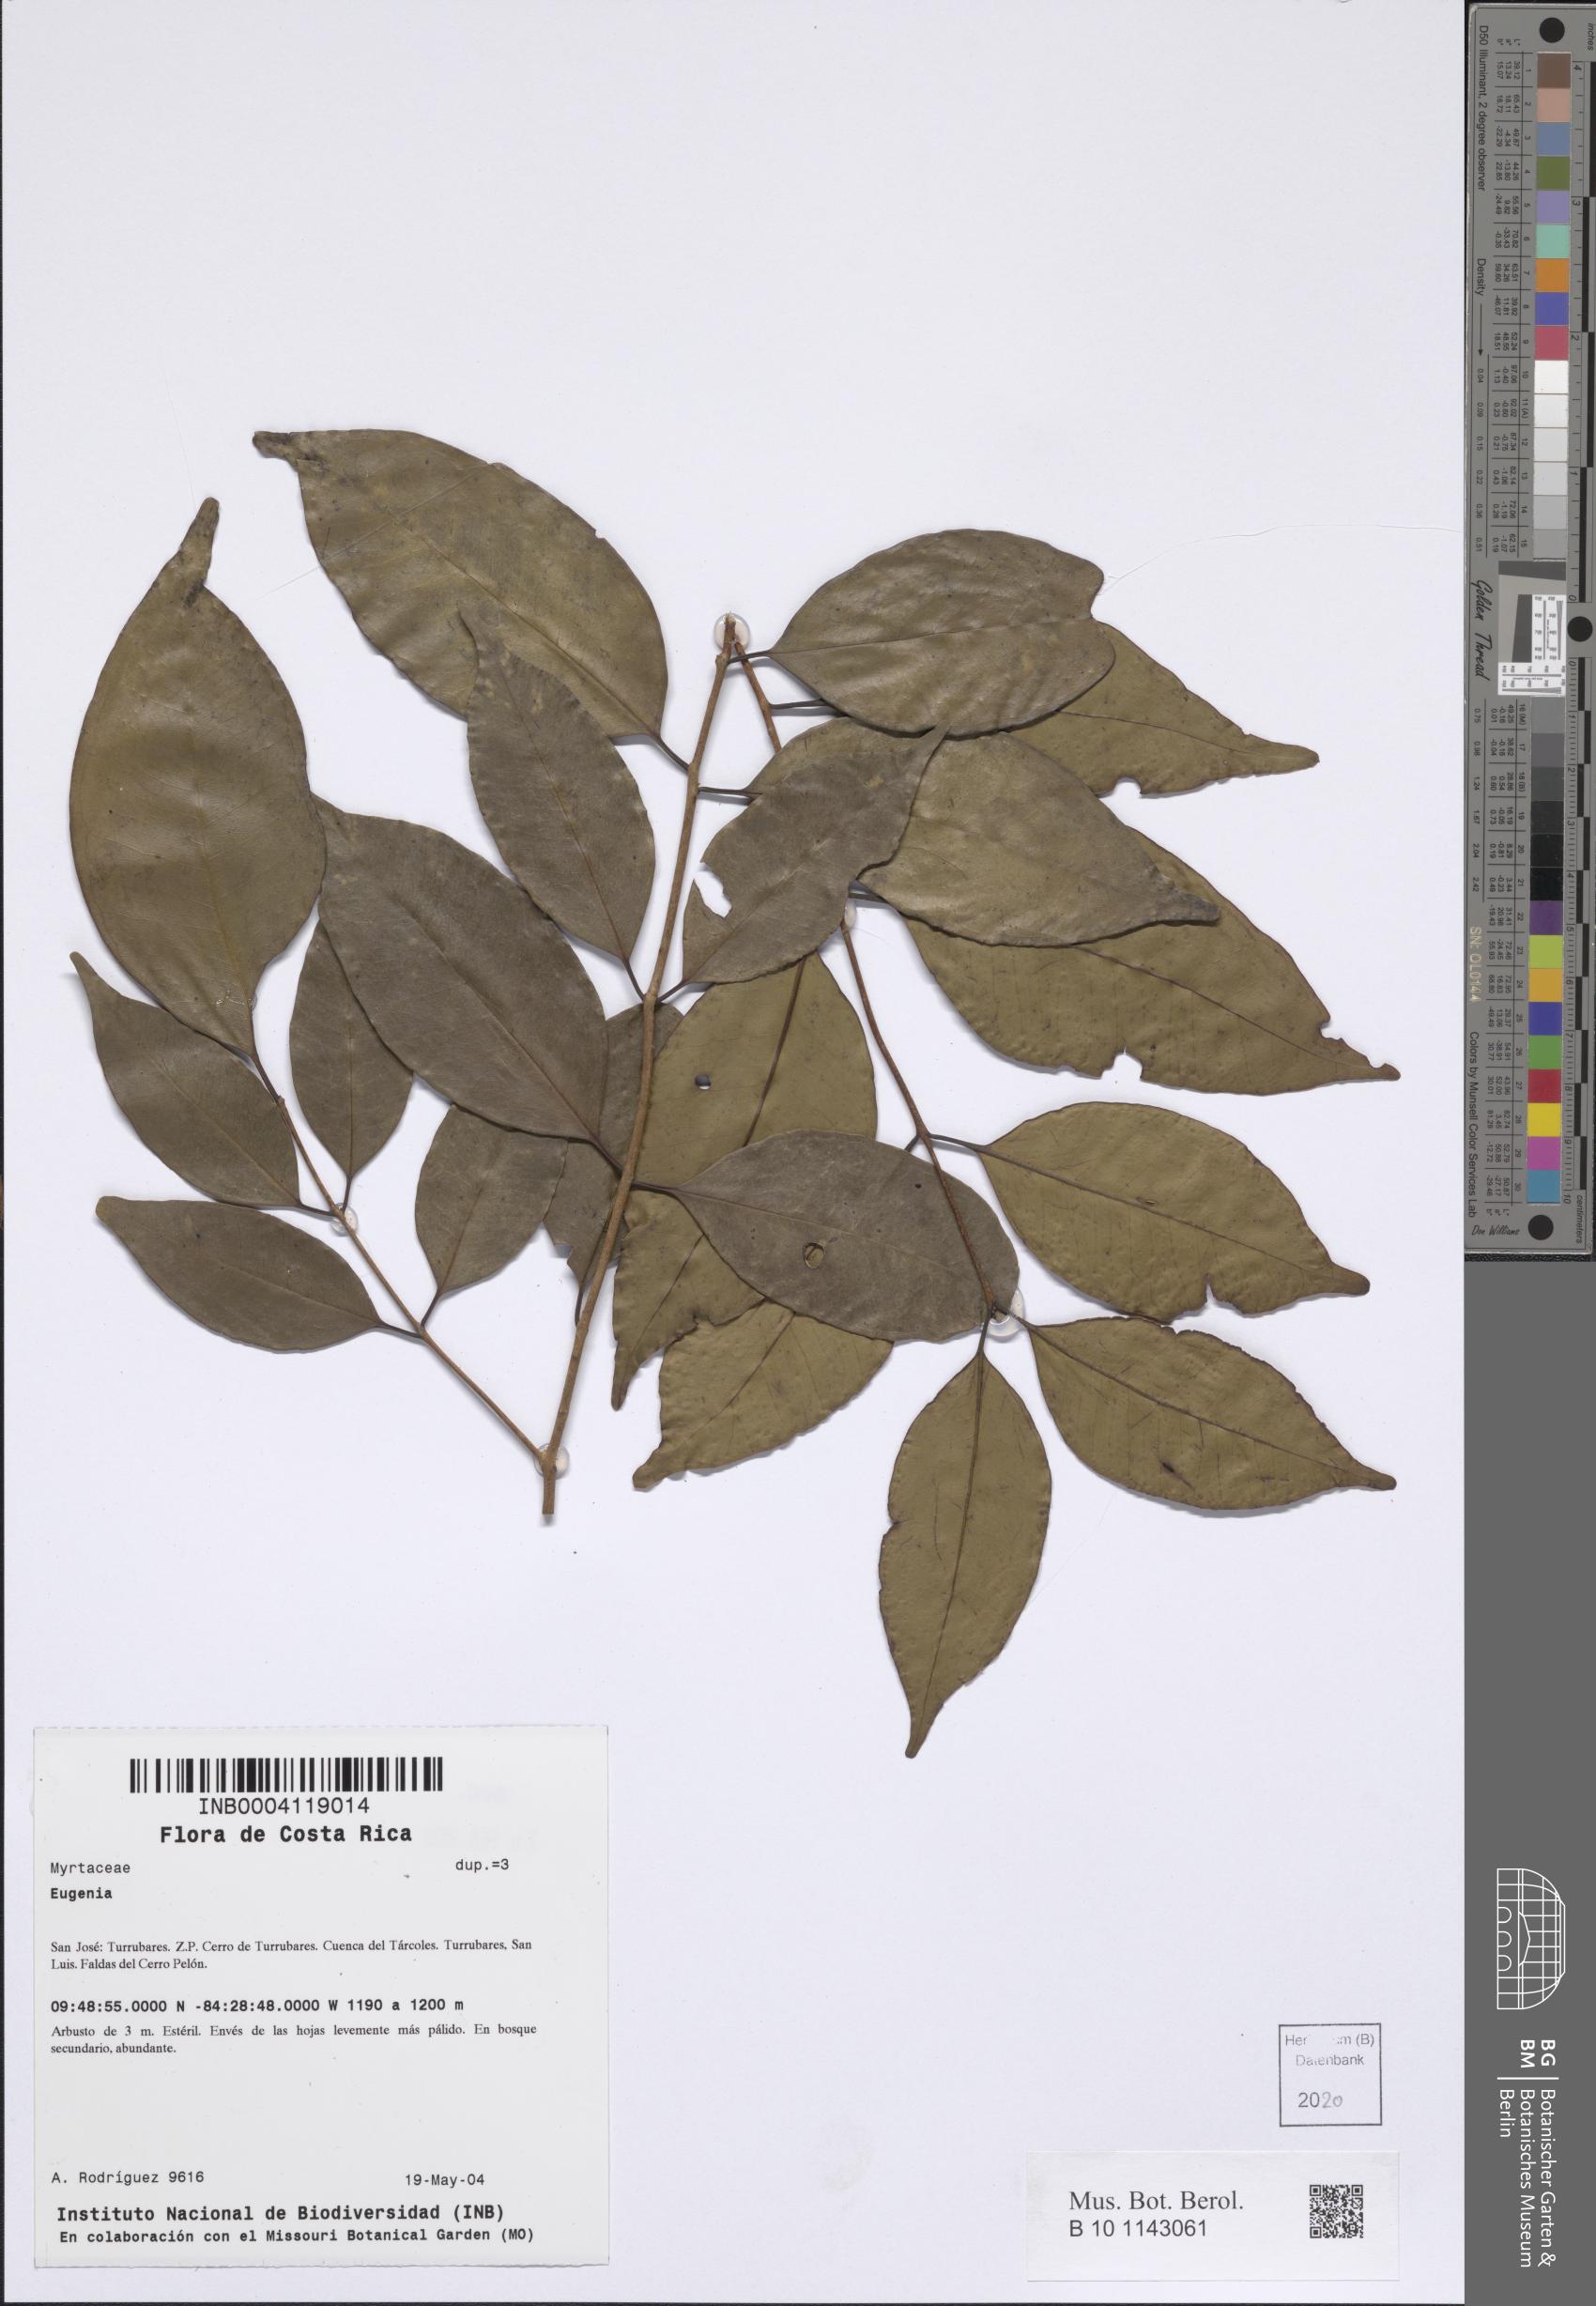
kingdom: Plantae
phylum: Tracheophyta
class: Magnoliopsida
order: Myrtales
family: Myrtaceae
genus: Eugenia
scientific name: Eugenia
